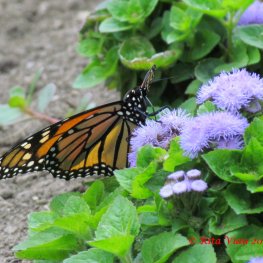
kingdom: Animalia
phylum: Arthropoda
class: Insecta
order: Lepidoptera
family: Nymphalidae
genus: Danaus
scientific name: Danaus plexippus
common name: Monarch
